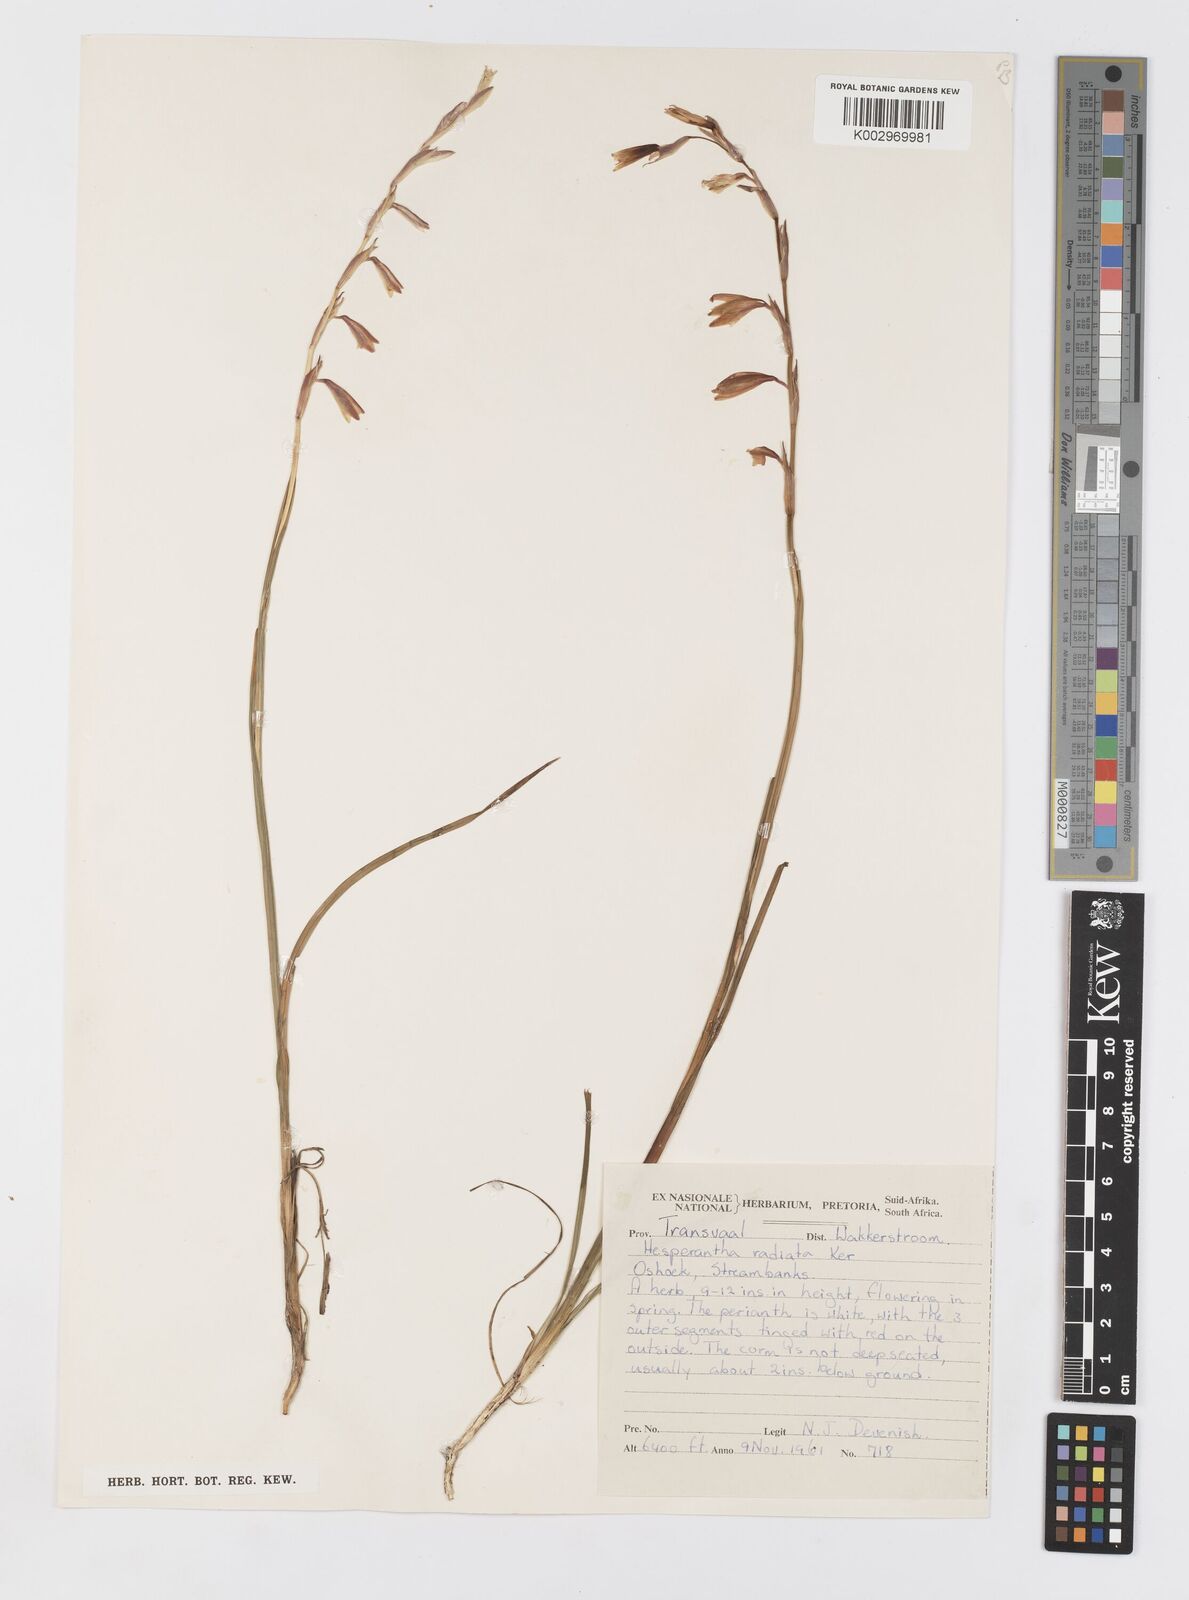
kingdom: Plantae
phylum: Tracheophyta
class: Liliopsida
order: Asparagales
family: Iridaceae
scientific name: Iridaceae
